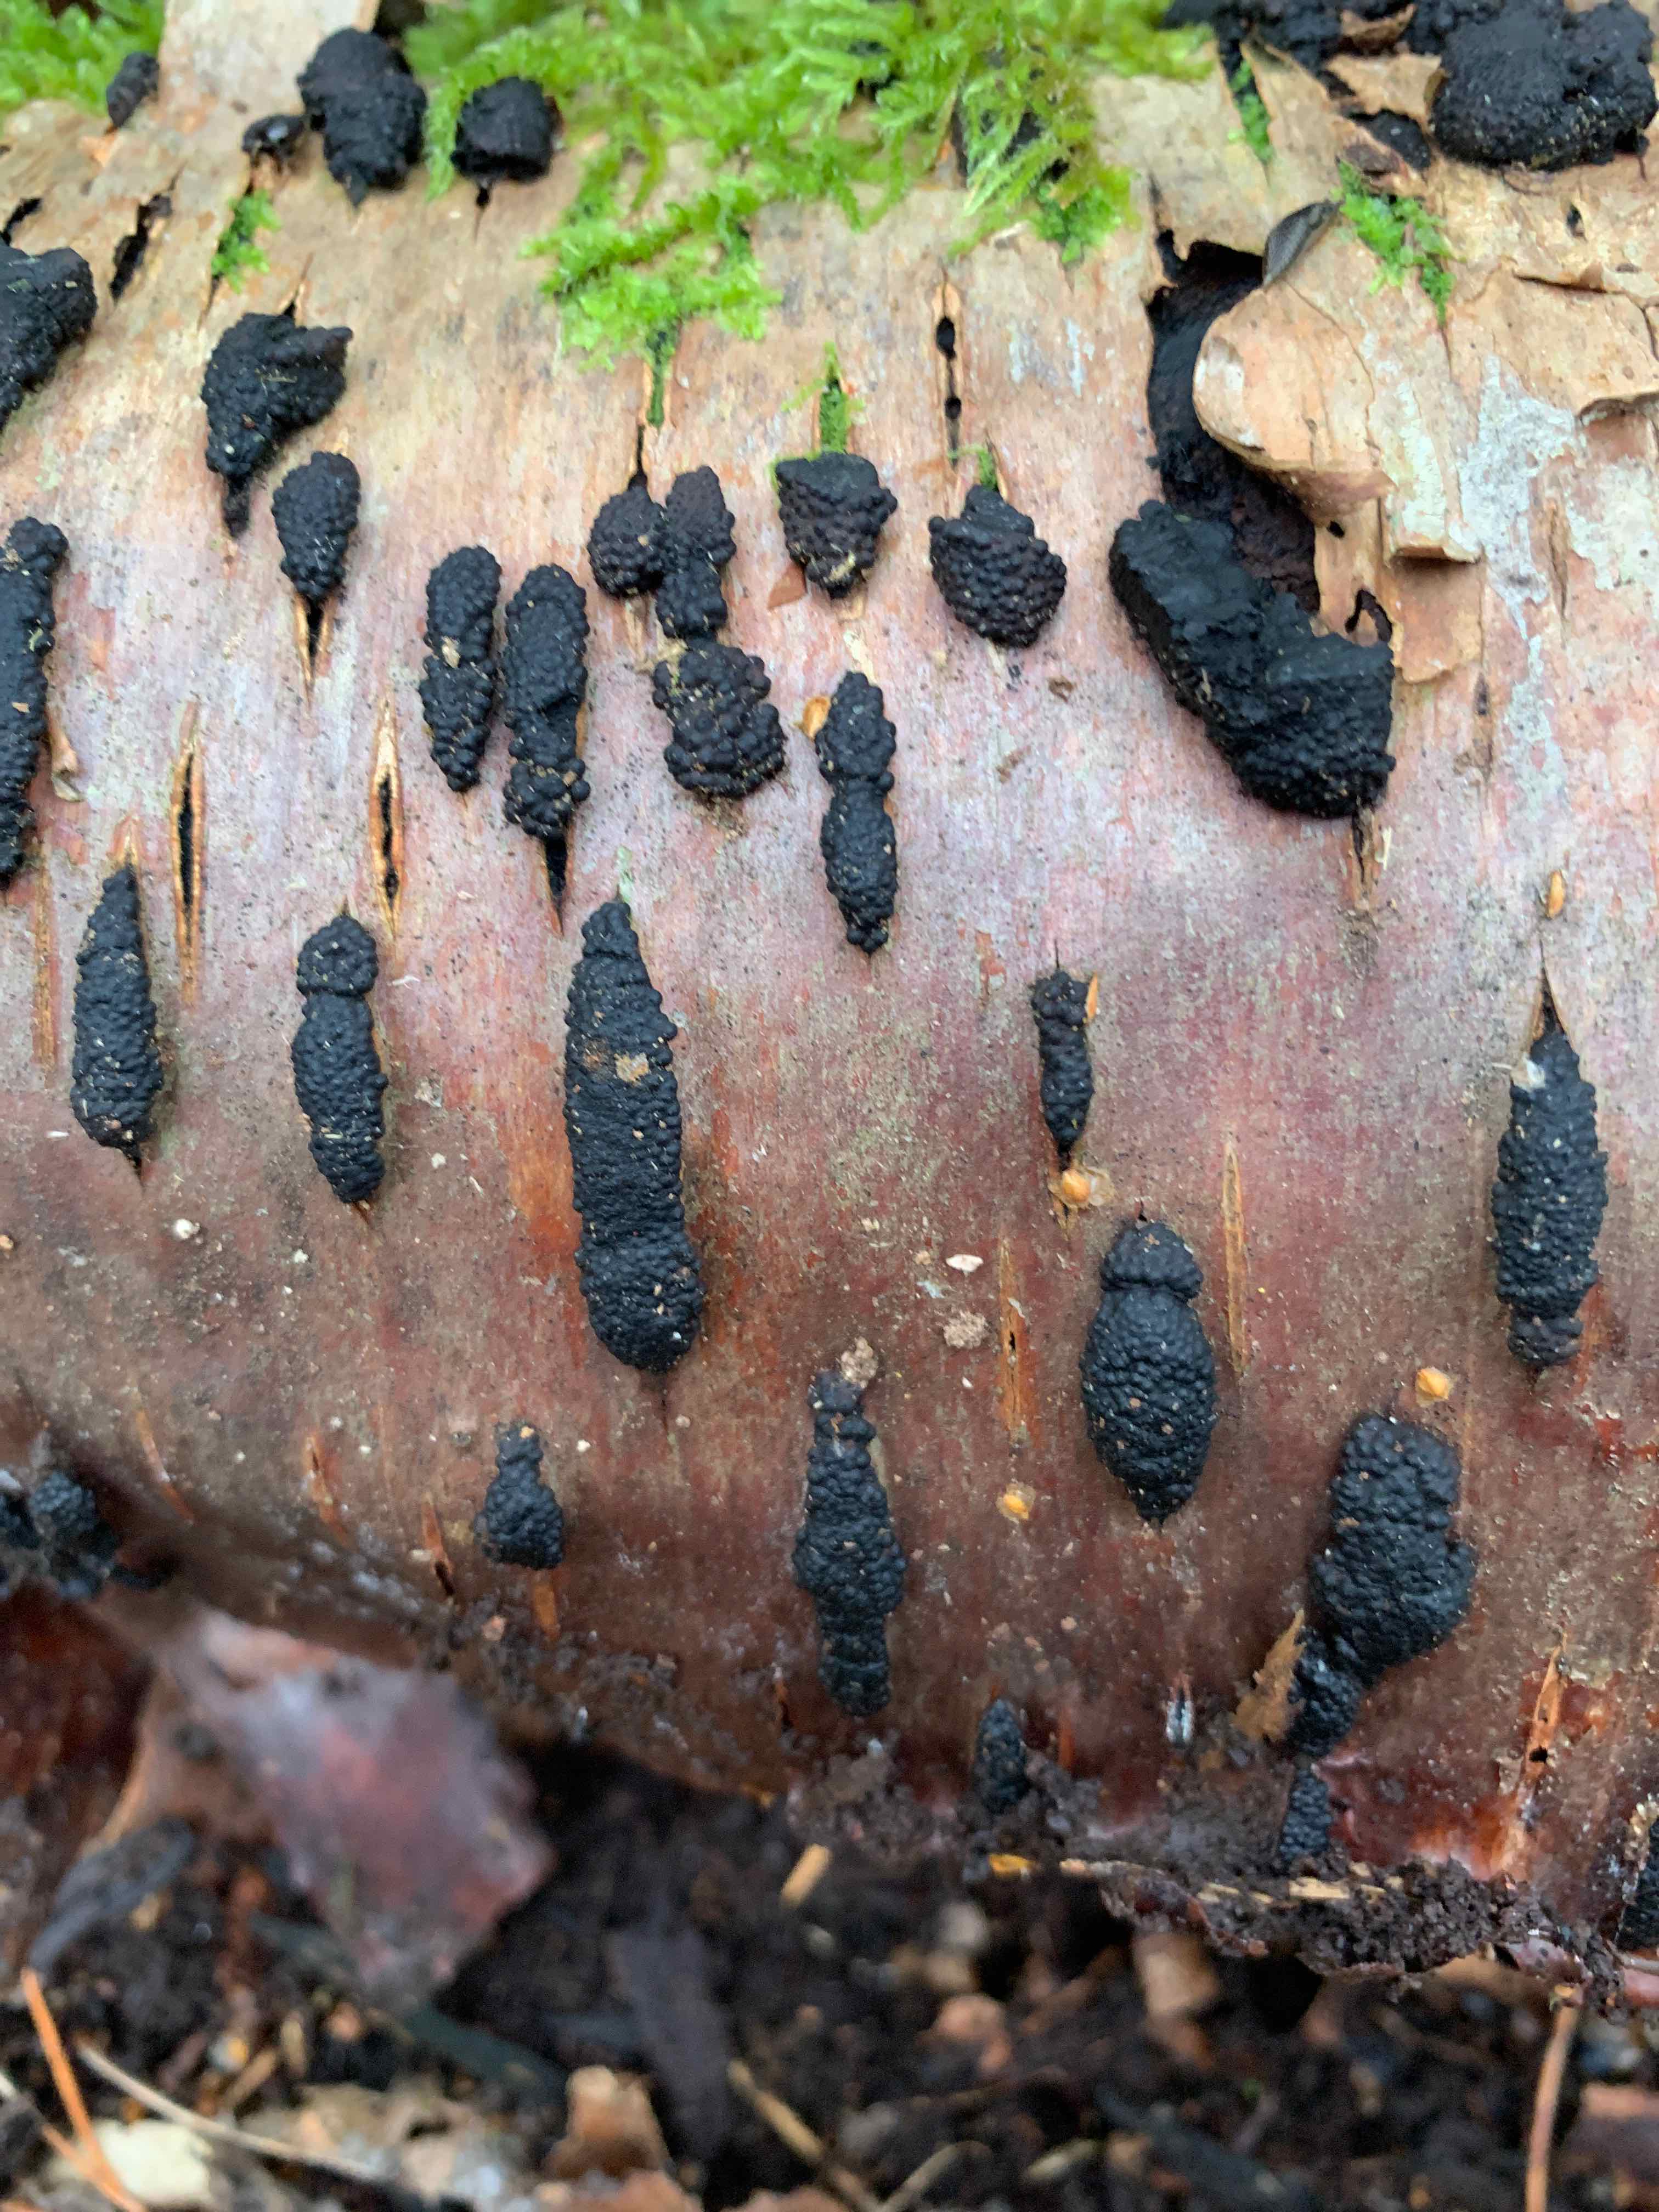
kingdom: Fungi
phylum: Ascomycota
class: Sordariomycetes
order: Xylariales
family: Hypoxylaceae
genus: Jackrogersella
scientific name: Jackrogersella multiformis
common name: foranderlig kulbær
